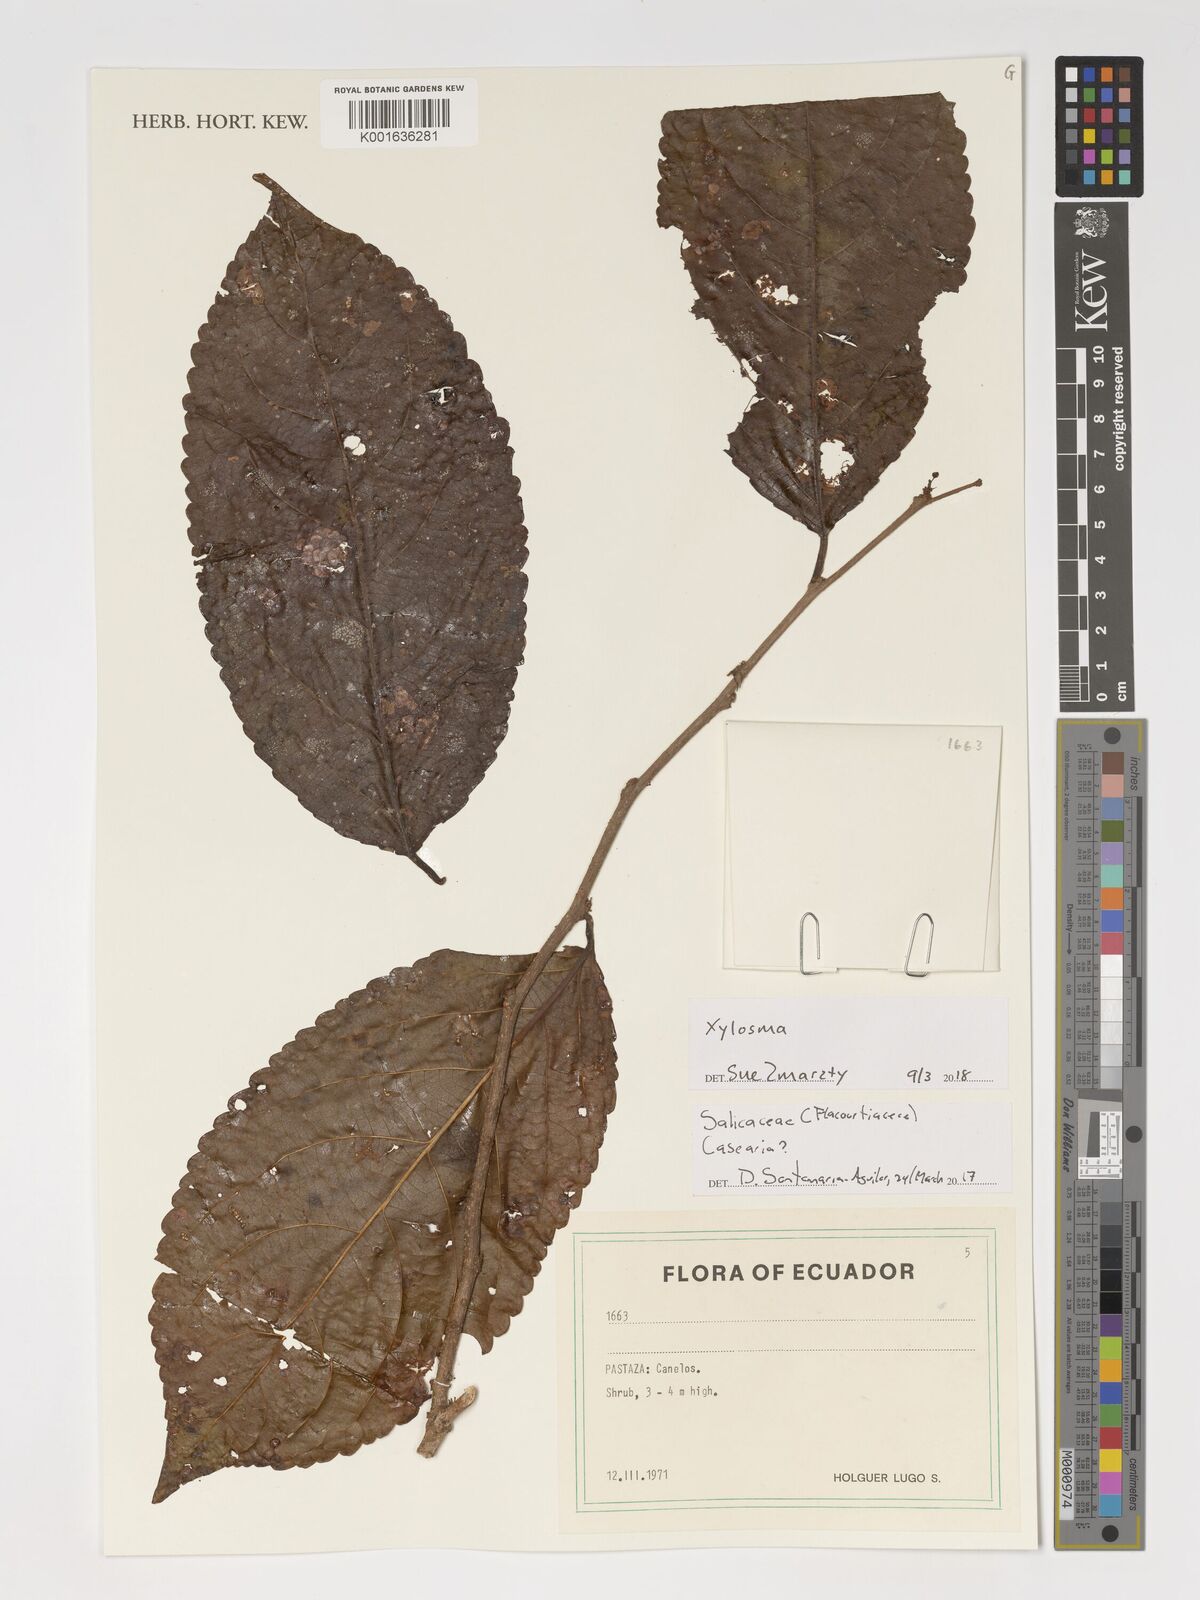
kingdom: Plantae
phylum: Tracheophyta
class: Magnoliopsida
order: Malpighiales
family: Salicaceae
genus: Xylosma
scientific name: Xylosma
